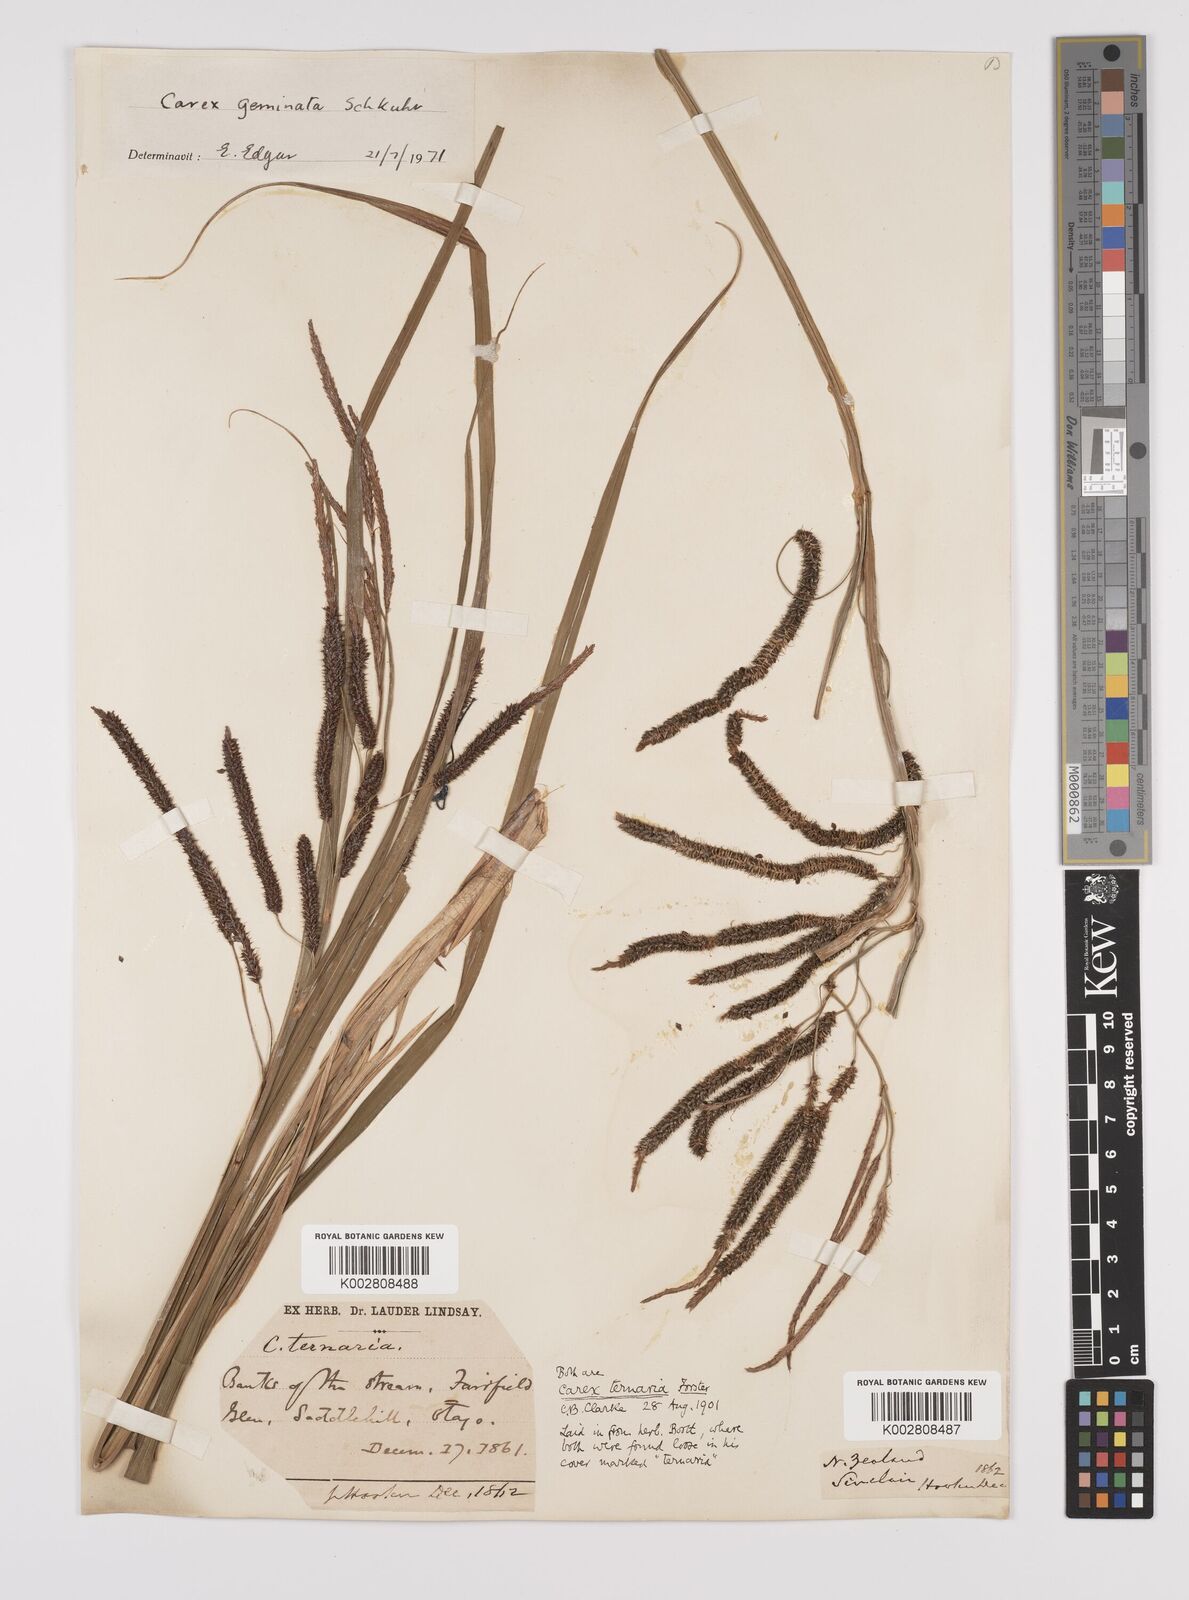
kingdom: Plantae
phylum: Tracheophyta
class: Liliopsida
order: Poales
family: Cyperaceae
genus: Carex
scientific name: Carex geminata
